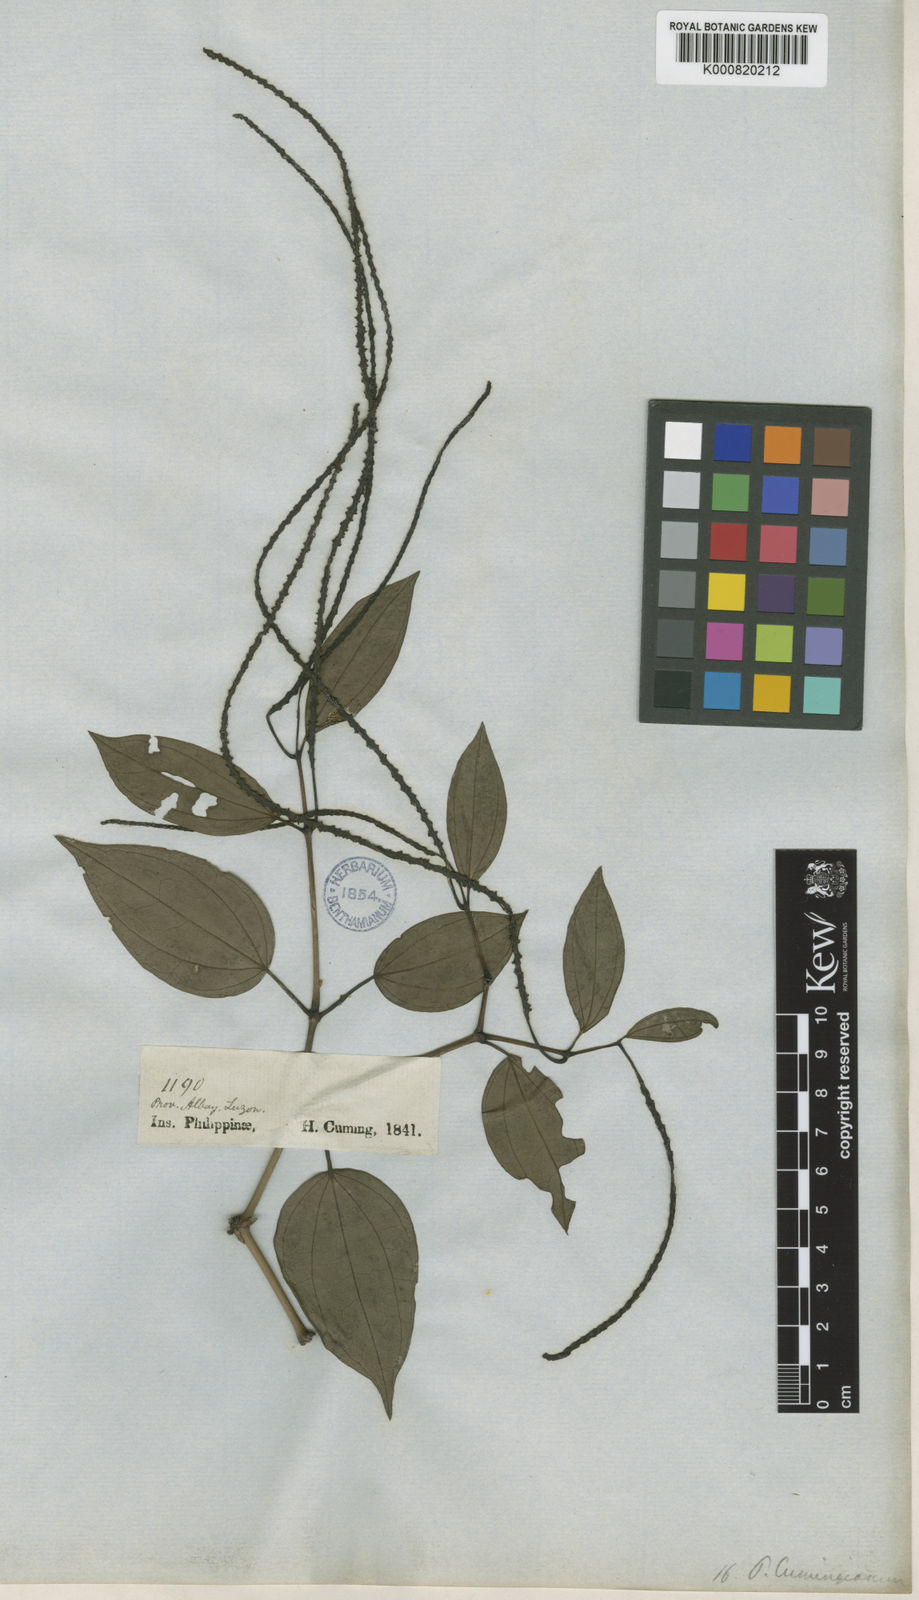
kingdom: Plantae
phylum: Tracheophyta
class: Magnoliopsida
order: Piperales
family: Piperaceae
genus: Piper
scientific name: Piper interruptum
